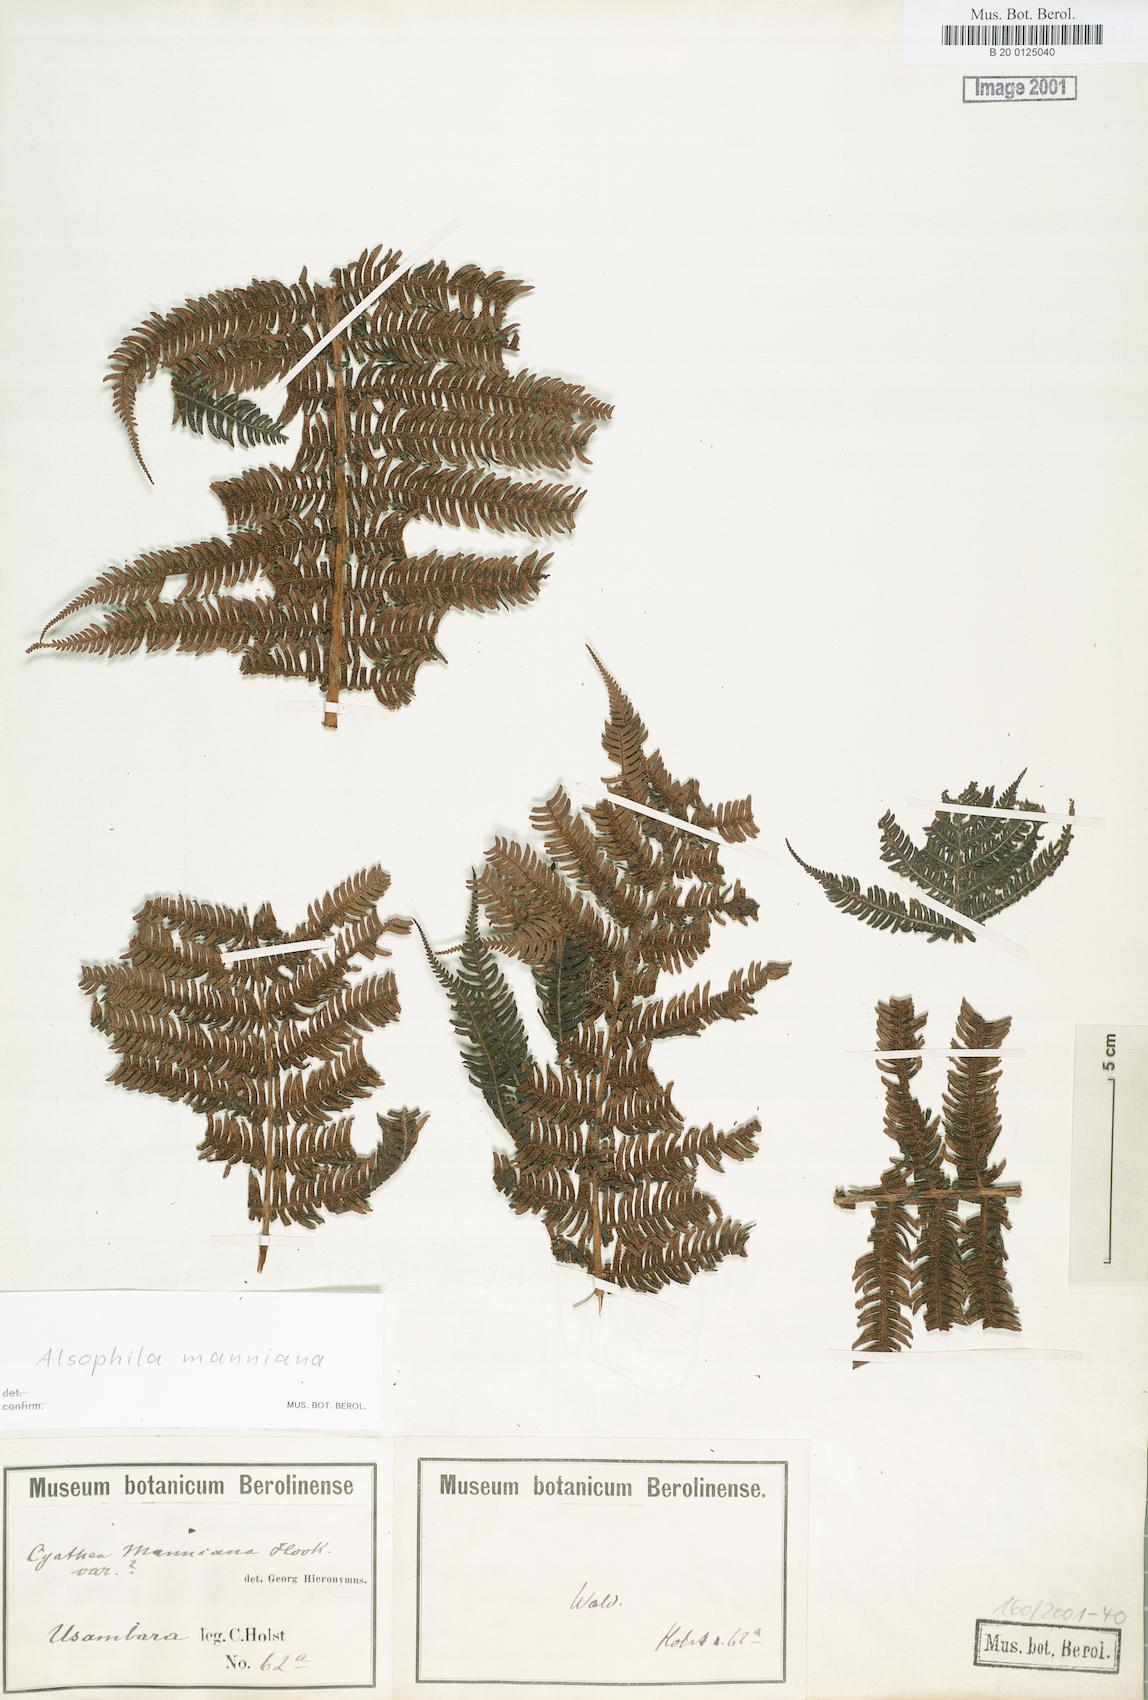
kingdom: Plantae
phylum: Tracheophyta
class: Polypodiopsida
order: Cyatheales
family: Cyatheaceae
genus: Alsophila
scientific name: Alsophila manniana
